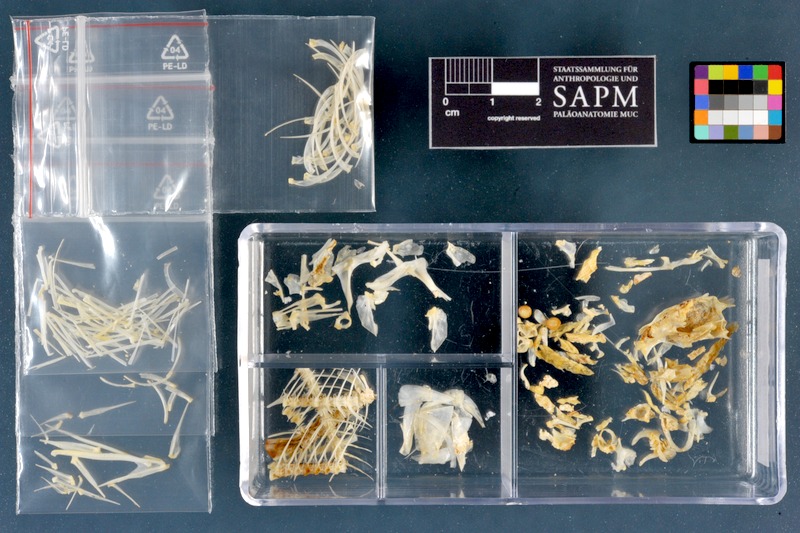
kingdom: Animalia
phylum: Chordata
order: Cypriniformes
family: Cyprinidae
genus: Acanthobrama
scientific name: Acanthobrama marmid
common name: Mesopotamian bream
